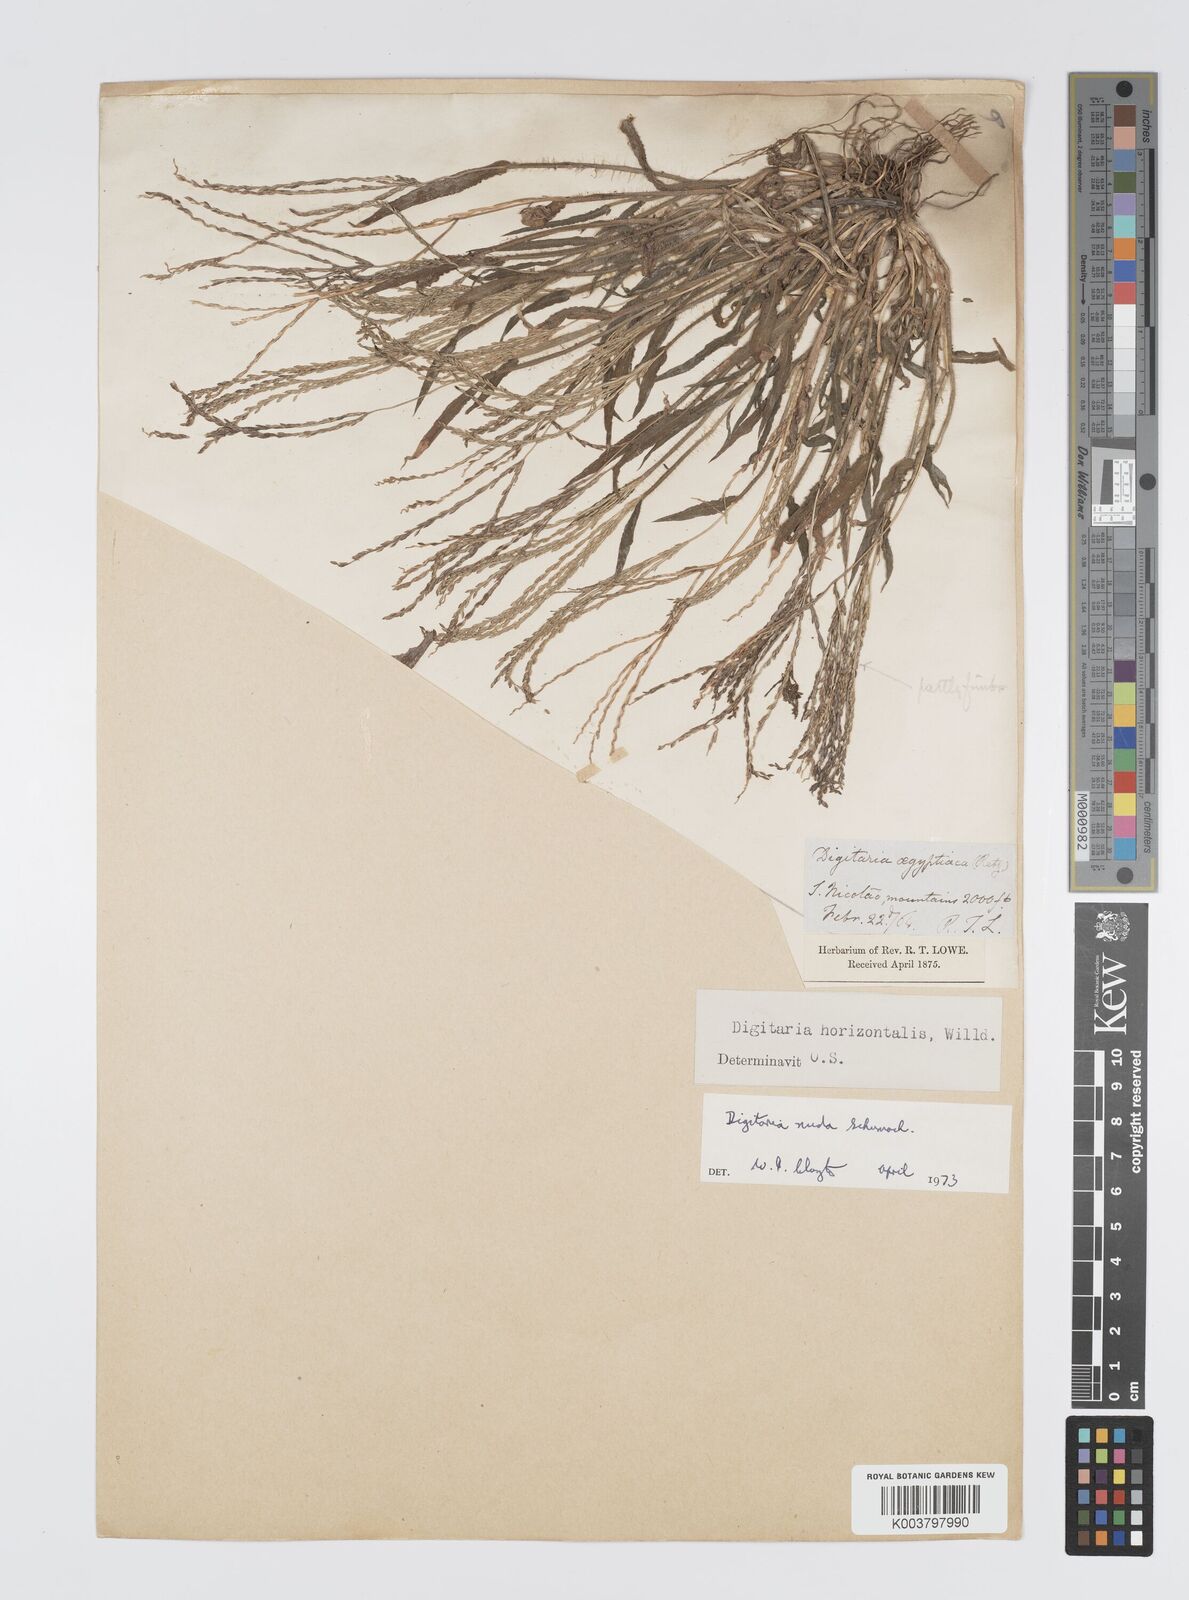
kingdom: Plantae
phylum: Tracheophyta
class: Liliopsida
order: Poales
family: Poaceae
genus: Digitaria
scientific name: Digitaria nuda
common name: Naked crabgrass
